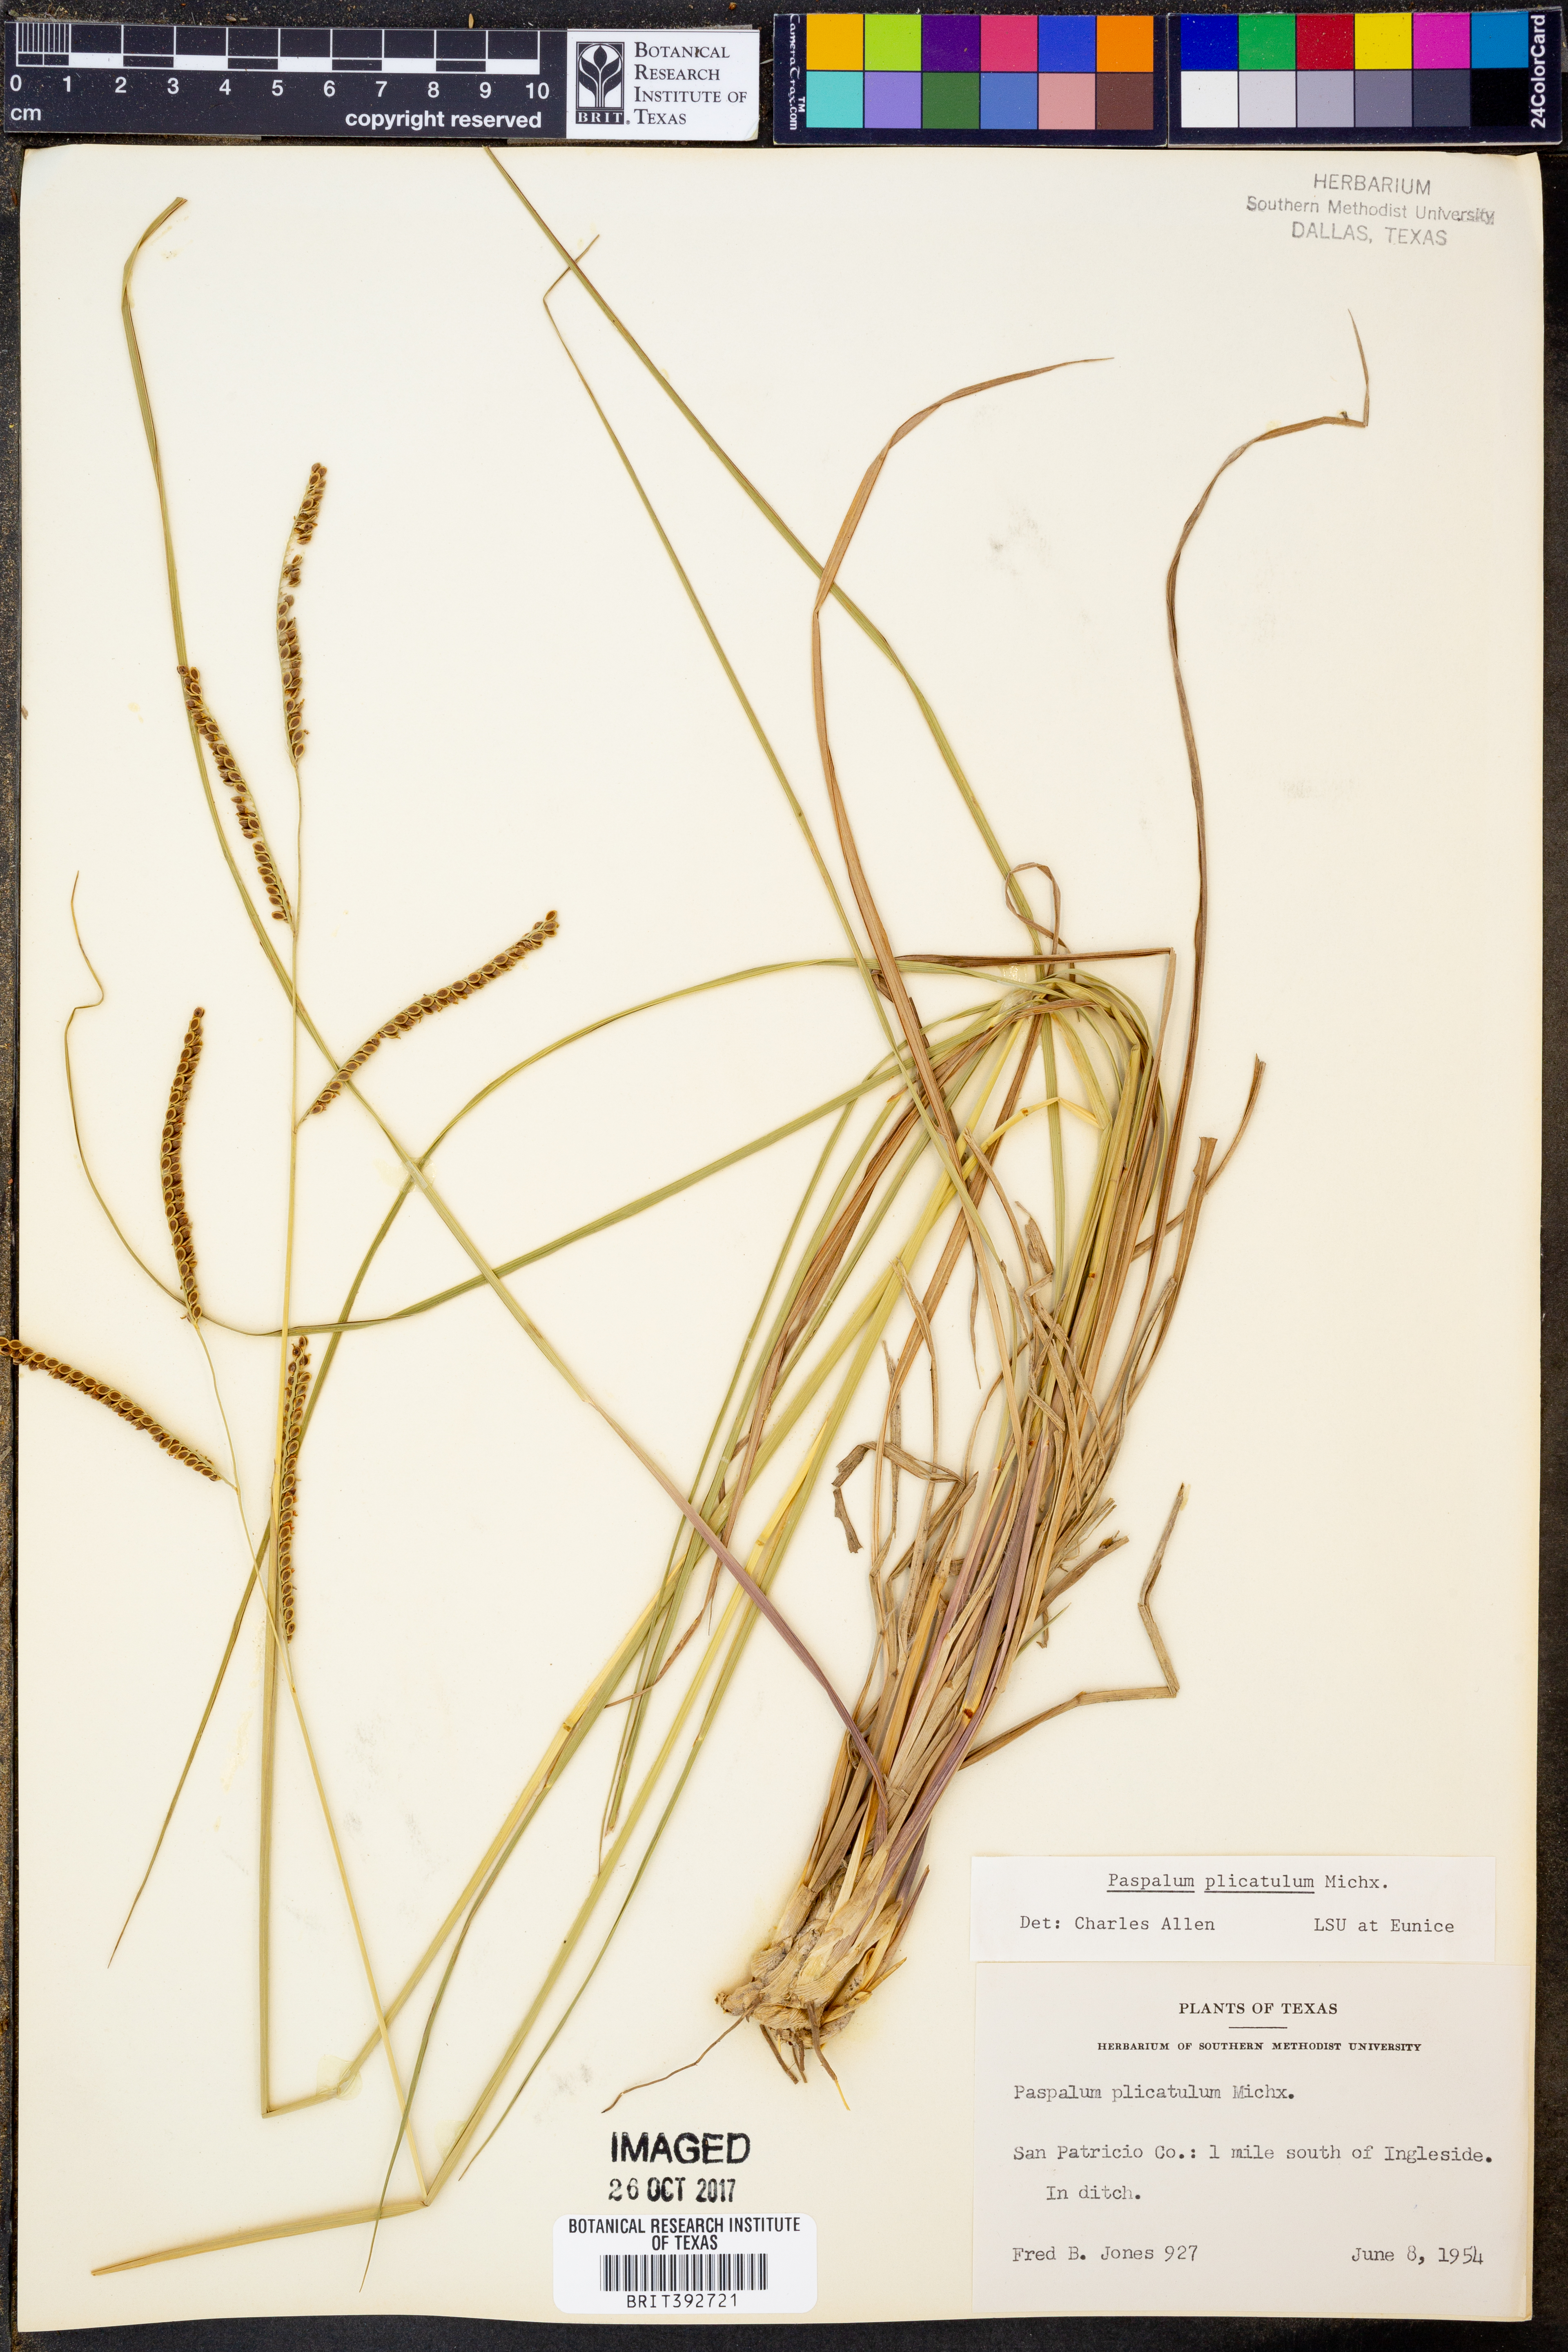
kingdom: Plantae
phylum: Tracheophyta
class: Liliopsida
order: Poales
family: Poaceae
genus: Paspalum
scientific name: Paspalum plicatulum
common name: Top paspalum
